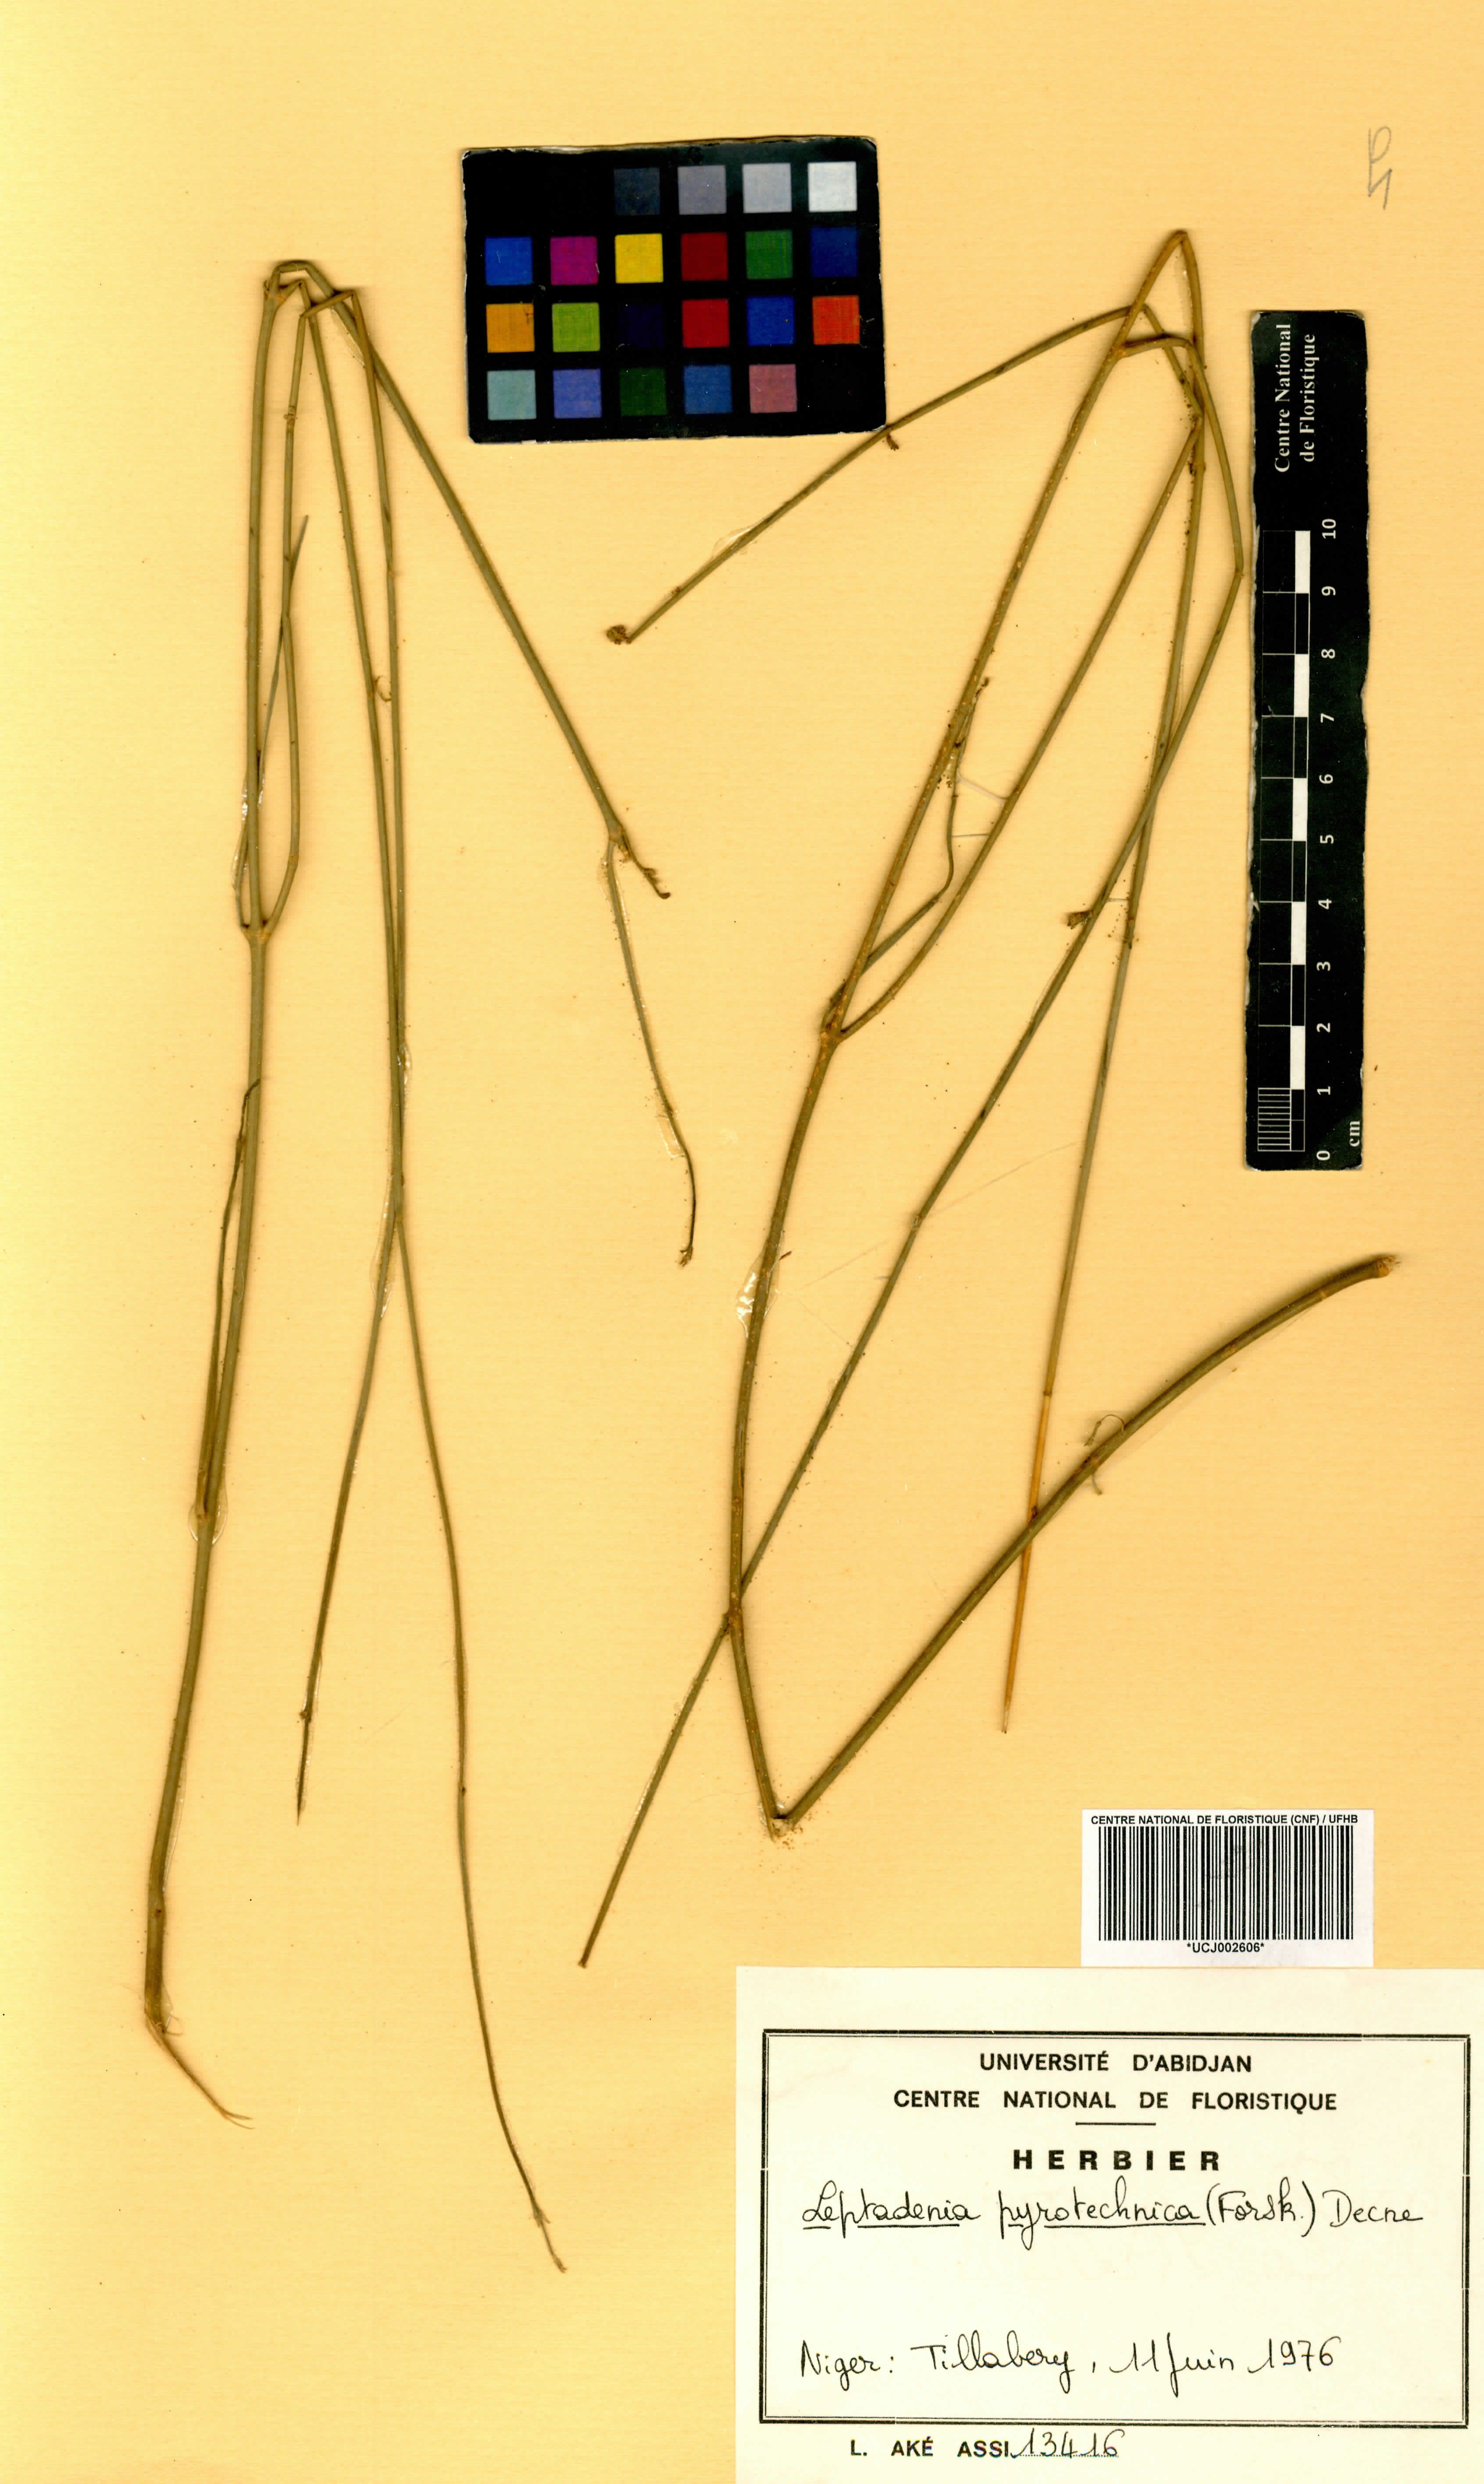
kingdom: Plantae
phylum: Tracheophyta
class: Magnoliopsida
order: Gentianales
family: Apocynaceae
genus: Leptadenia
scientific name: Leptadenia pyrotechnica
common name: Broom brush
